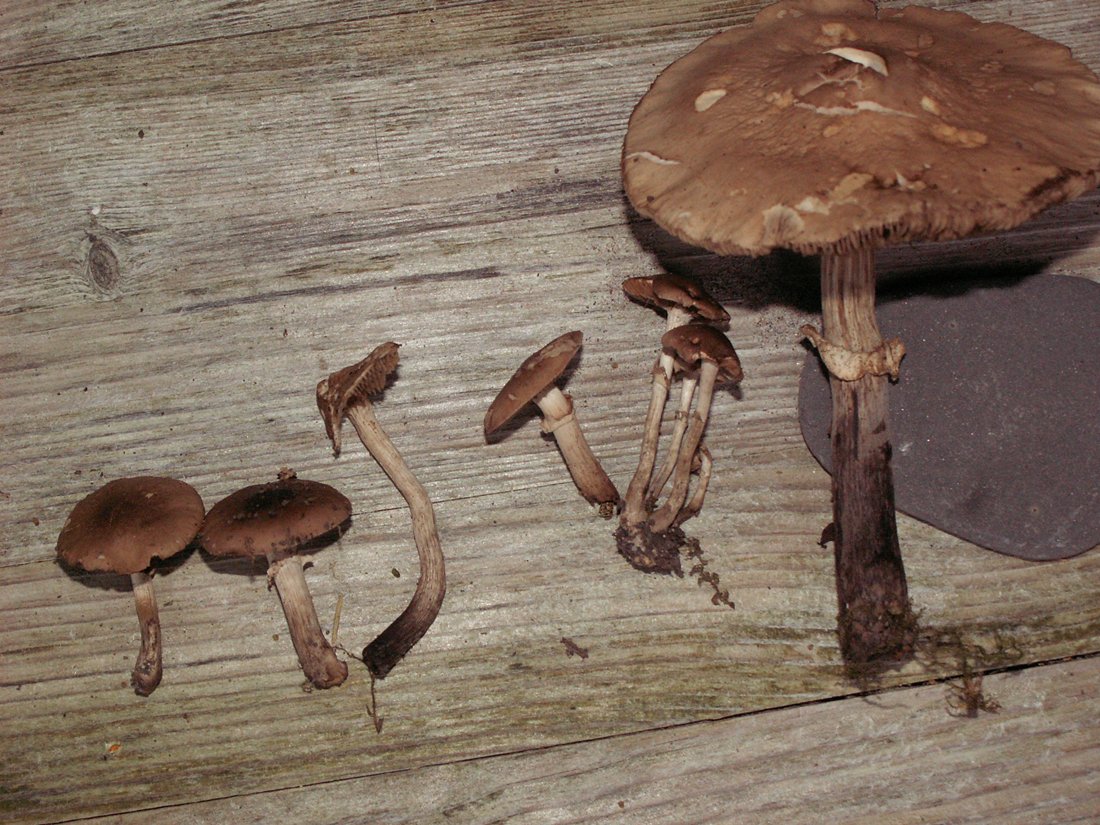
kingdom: Fungi
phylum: Basidiomycota
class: Agaricomycetes
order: Agaricales
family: Tubariaceae
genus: Cyclocybe
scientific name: Cyclocybe erebia
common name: mørk agerhat
